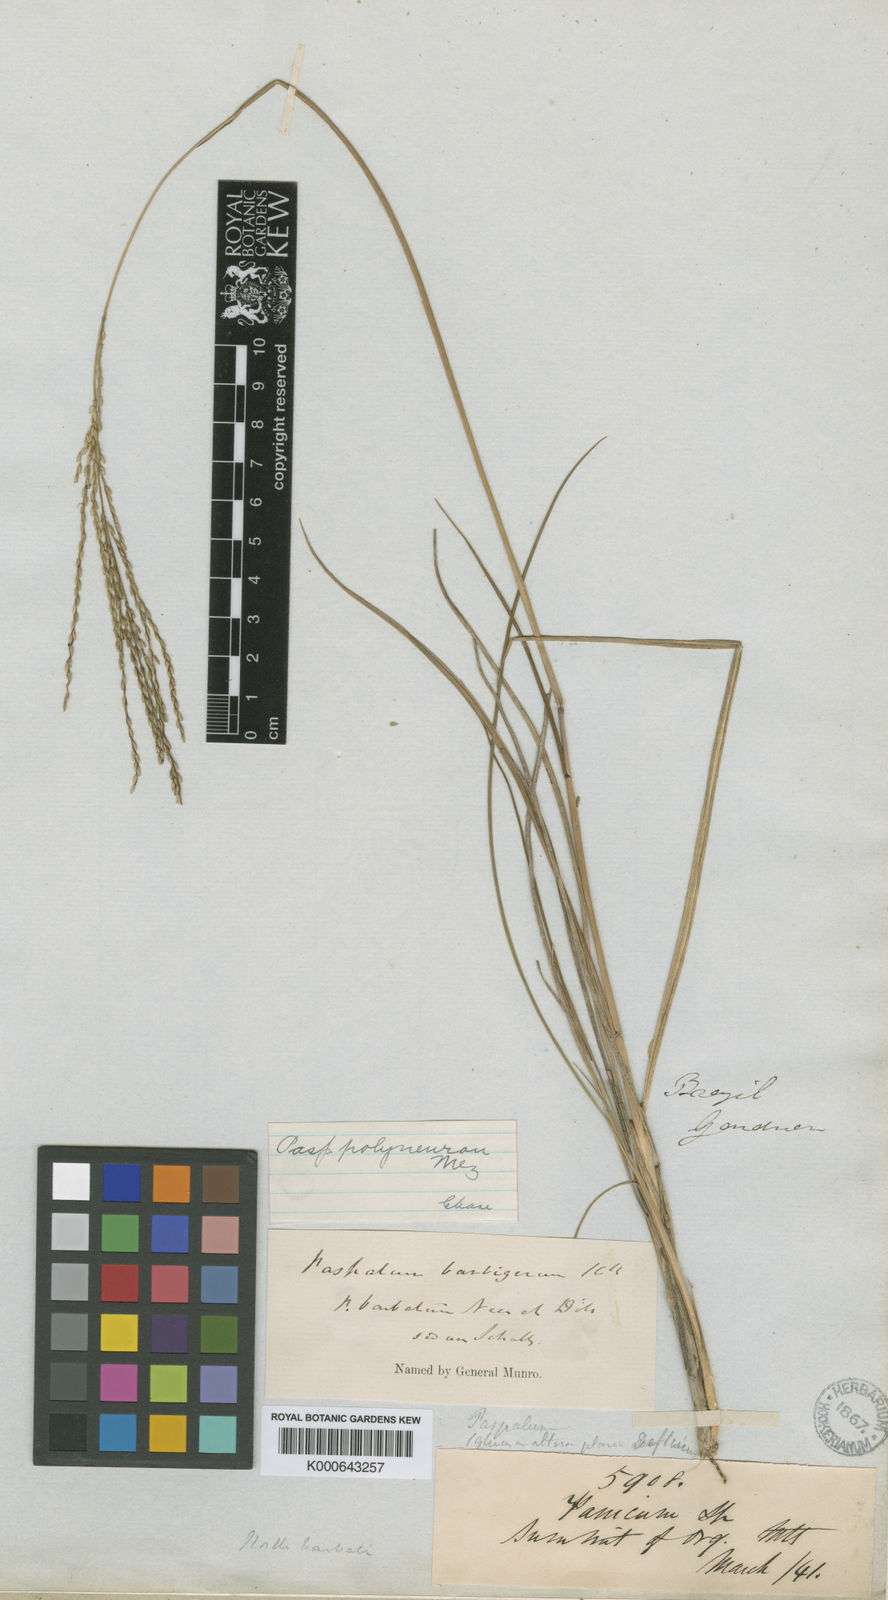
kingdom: Plantae
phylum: Tracheophyta
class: Liliopsida
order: Poales
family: Poaceae
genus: Axonopus
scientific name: Axonopus
